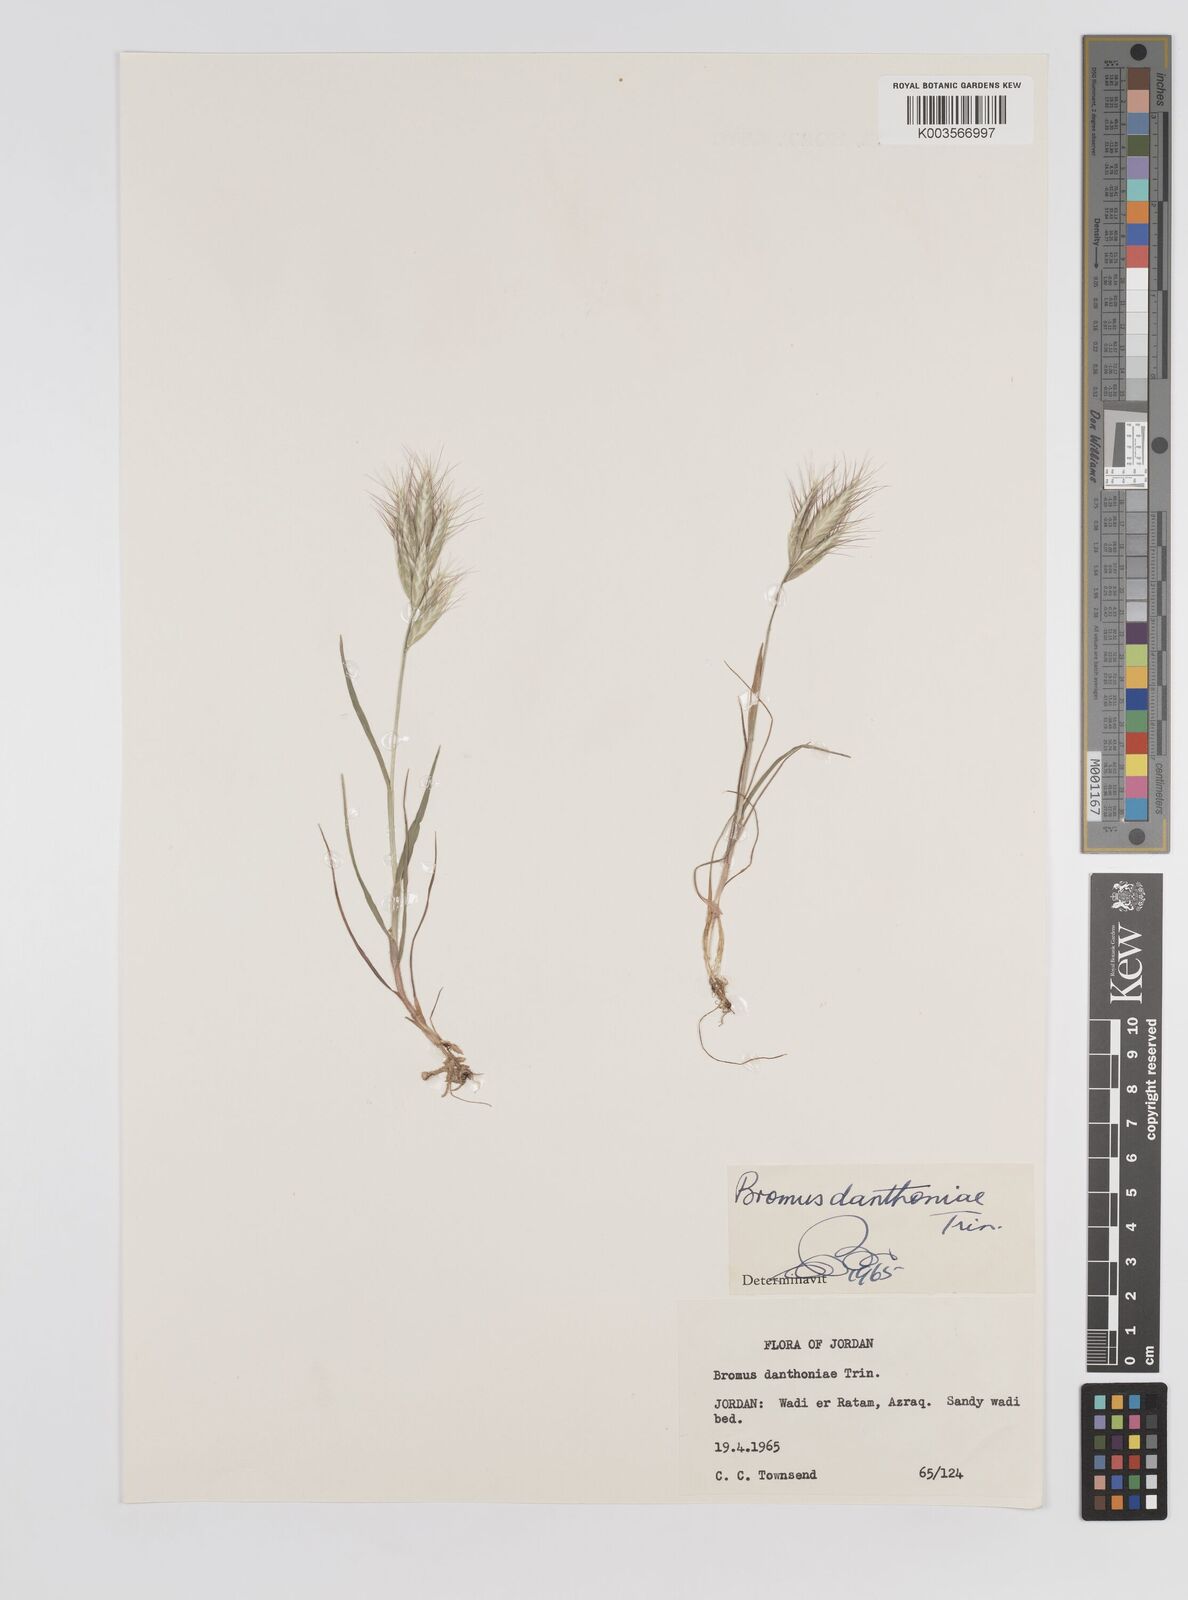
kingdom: Plantae
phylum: Tracheophyta
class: Liliopsida
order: Poales
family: Poaceae
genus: Bromus
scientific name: Bromus danthoniae
